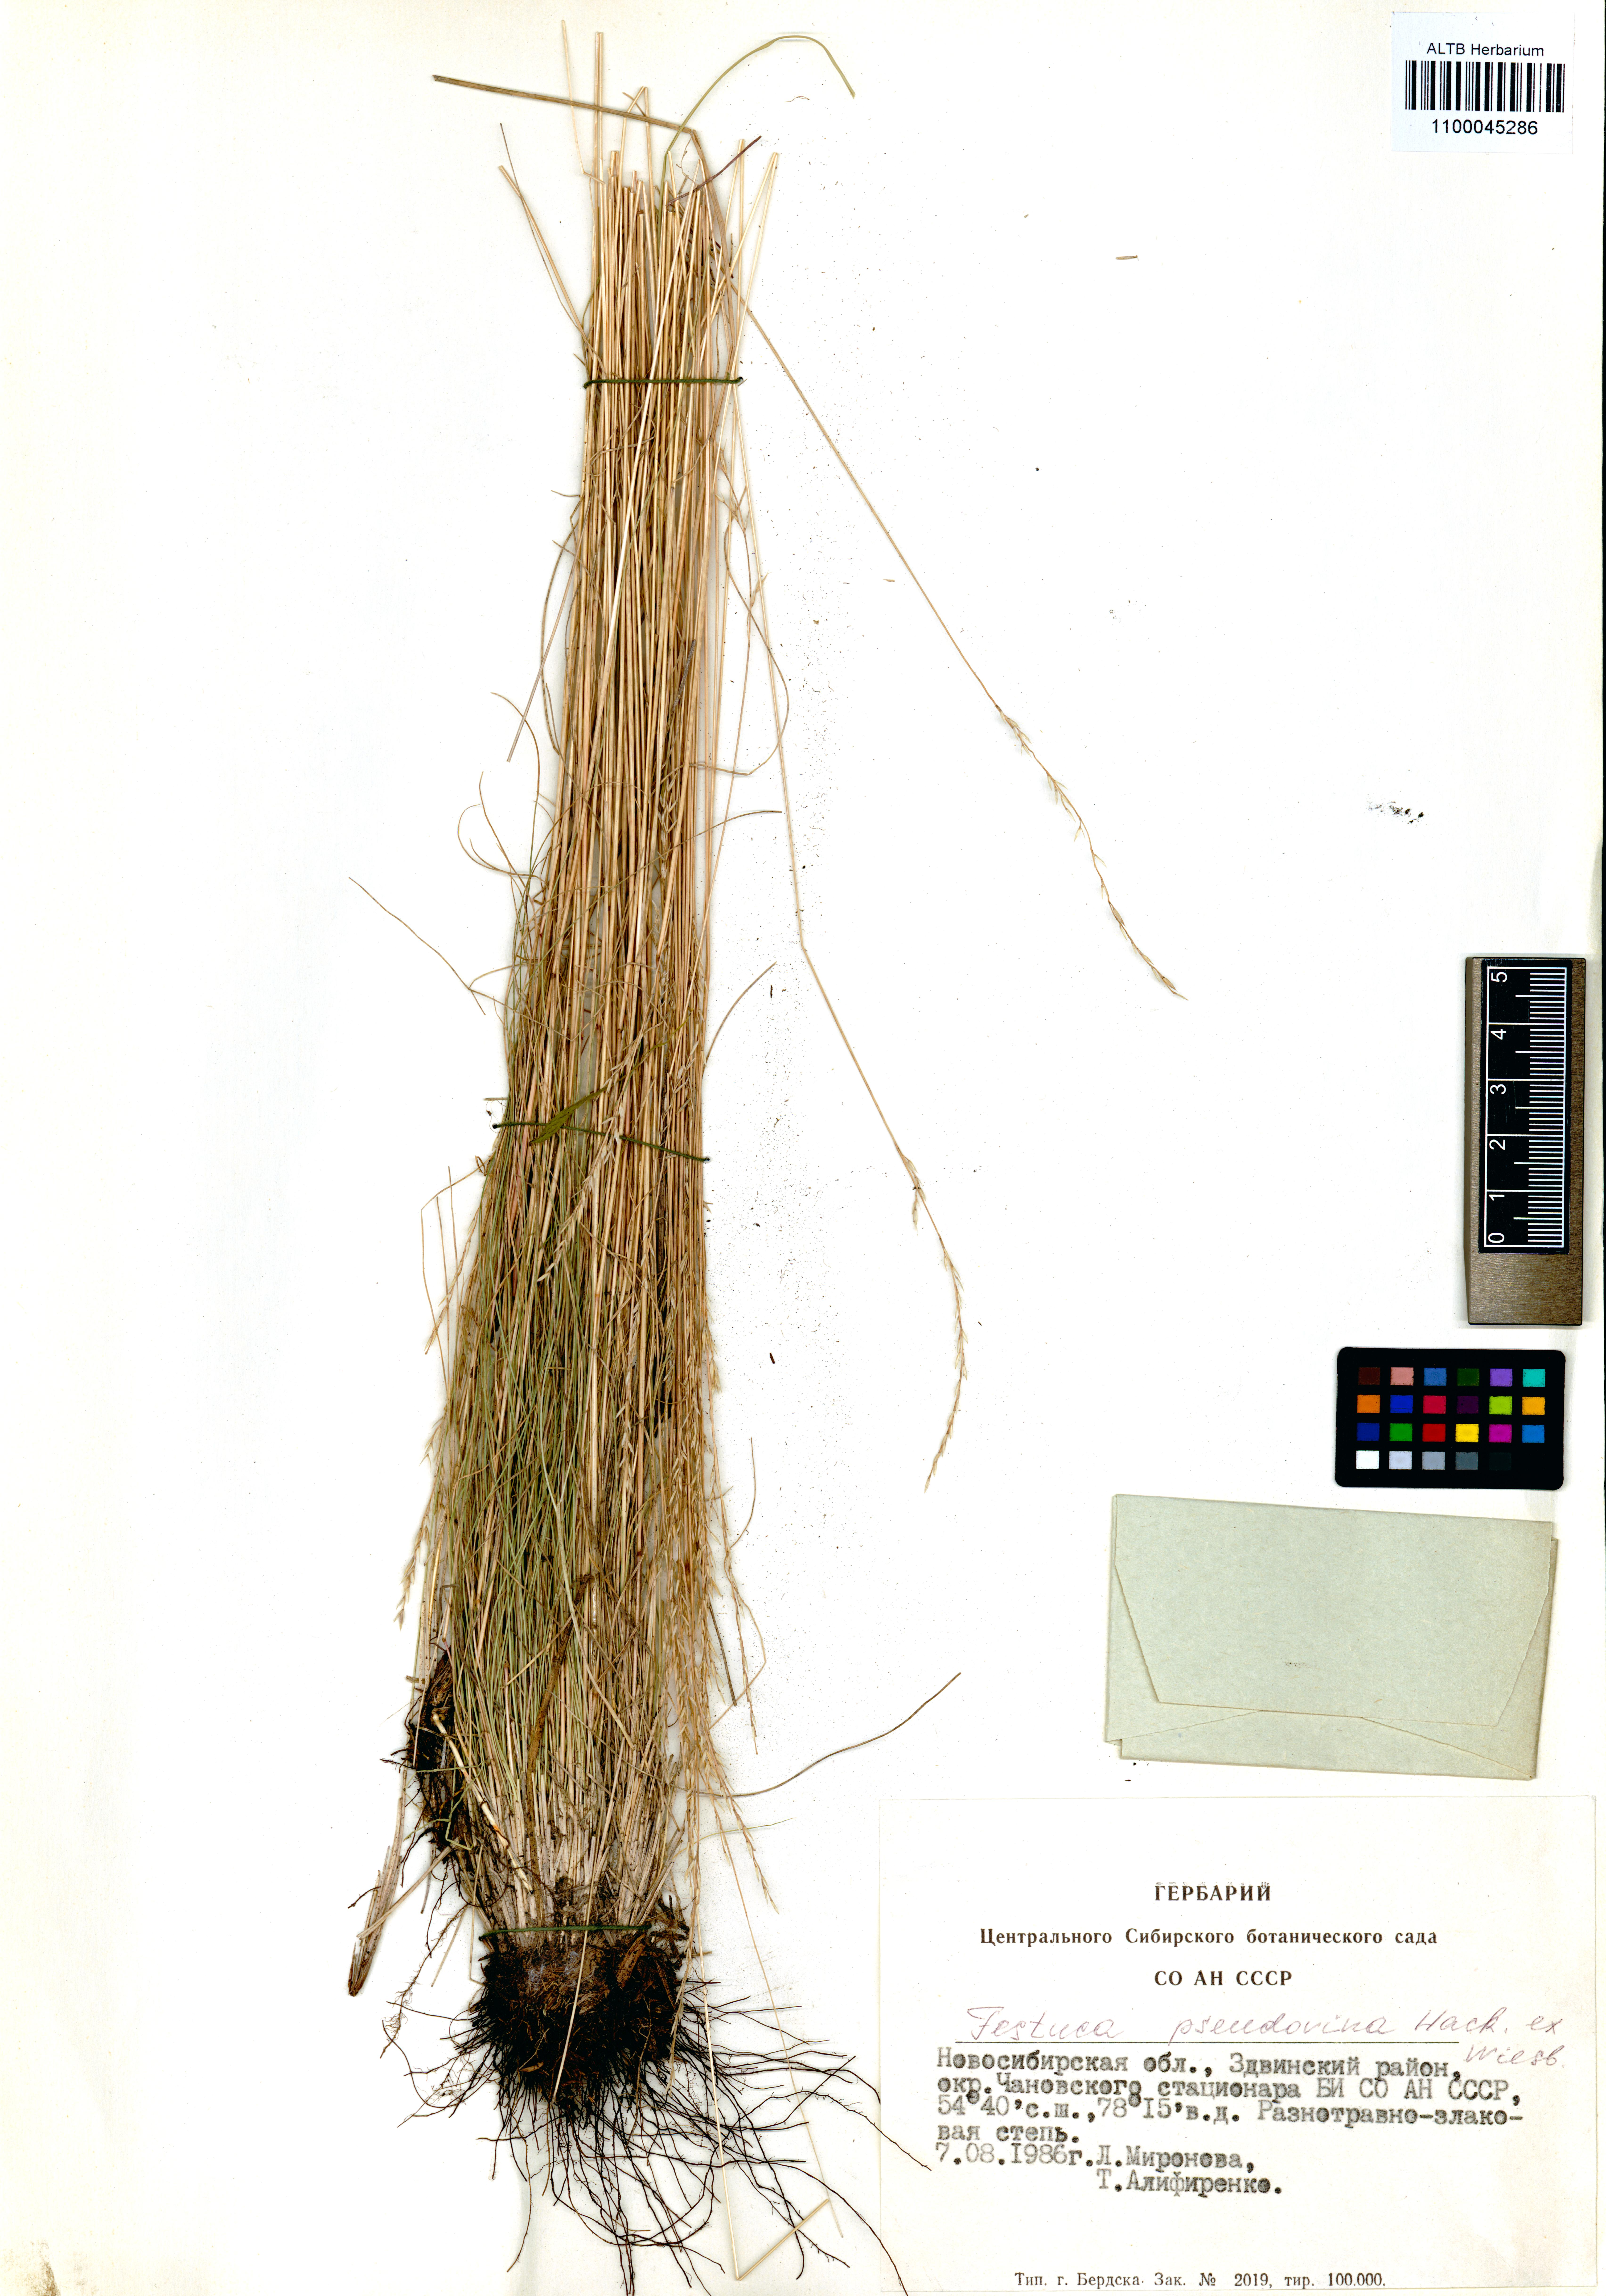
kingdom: Plantae
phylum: Tracheophyta
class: Liliopsida
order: Poales
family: Poaceae
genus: Festuca
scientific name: Festuca pulchra
